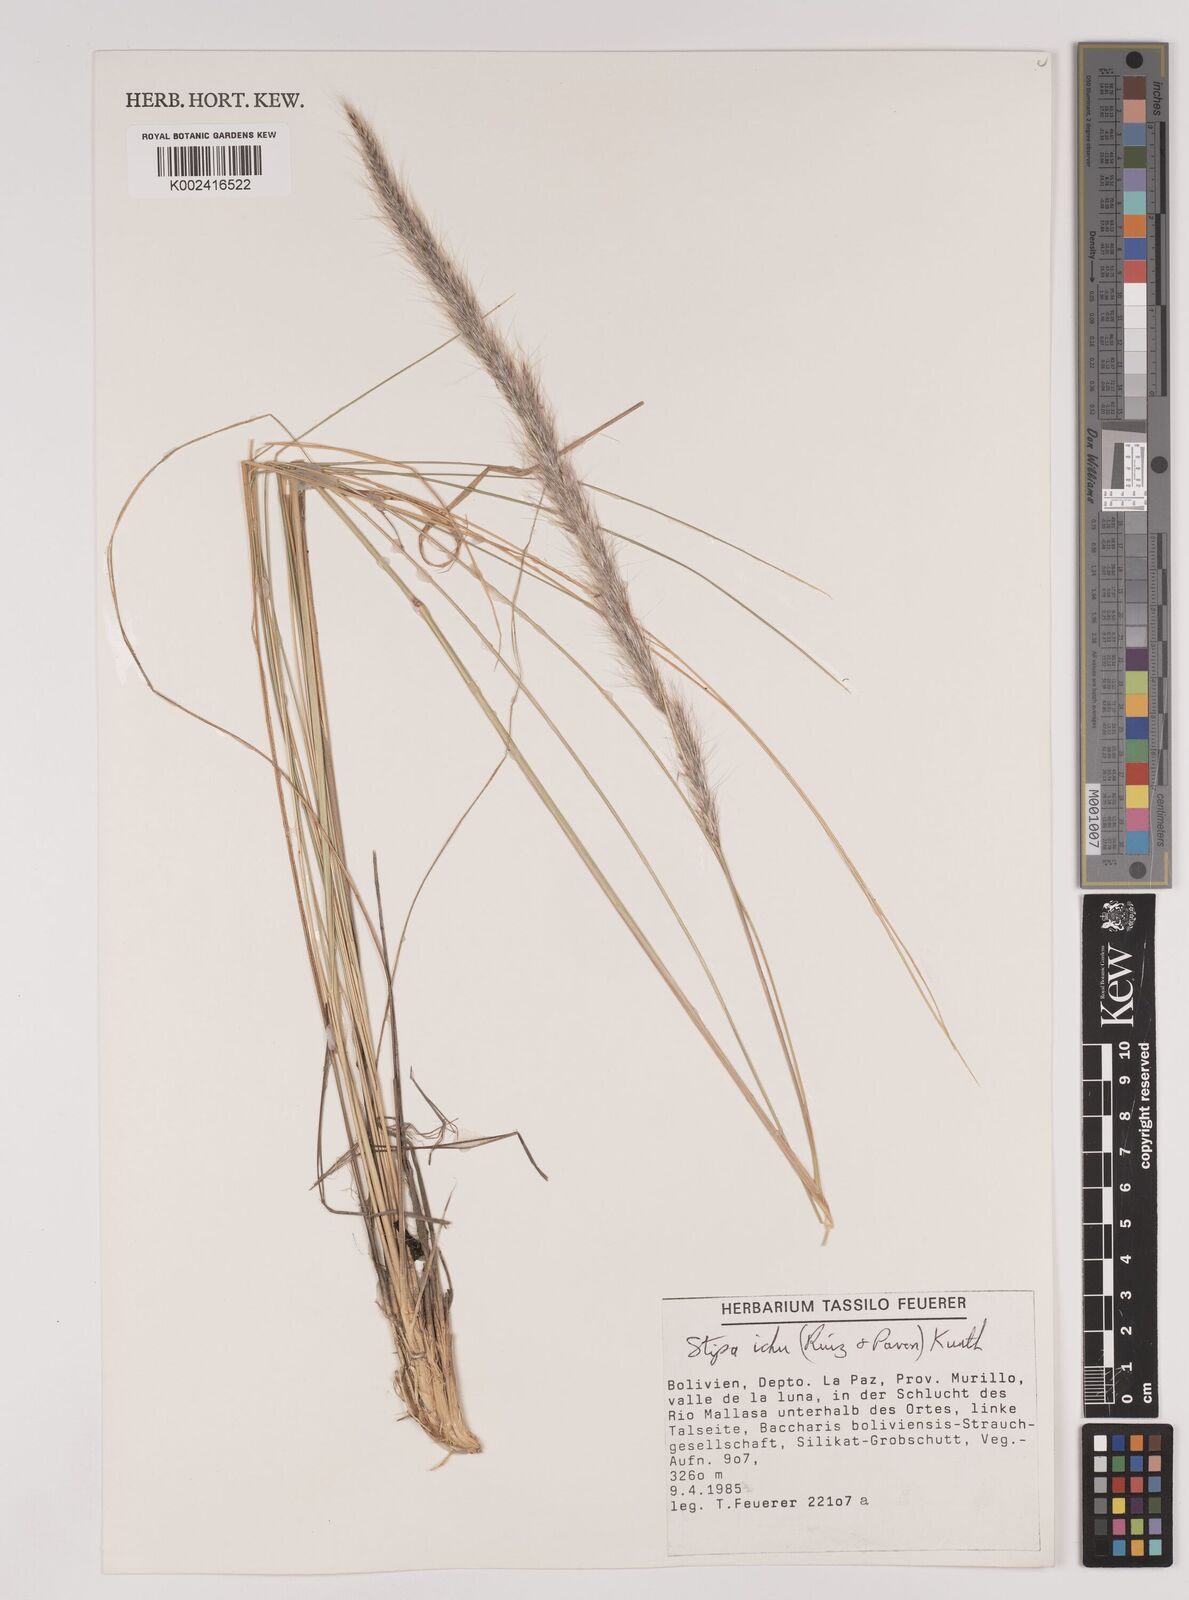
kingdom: Plantae
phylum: Tracheophyta
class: Liliopsida
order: Poales
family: Poaceae
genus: Jarava
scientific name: Jarava ichu
